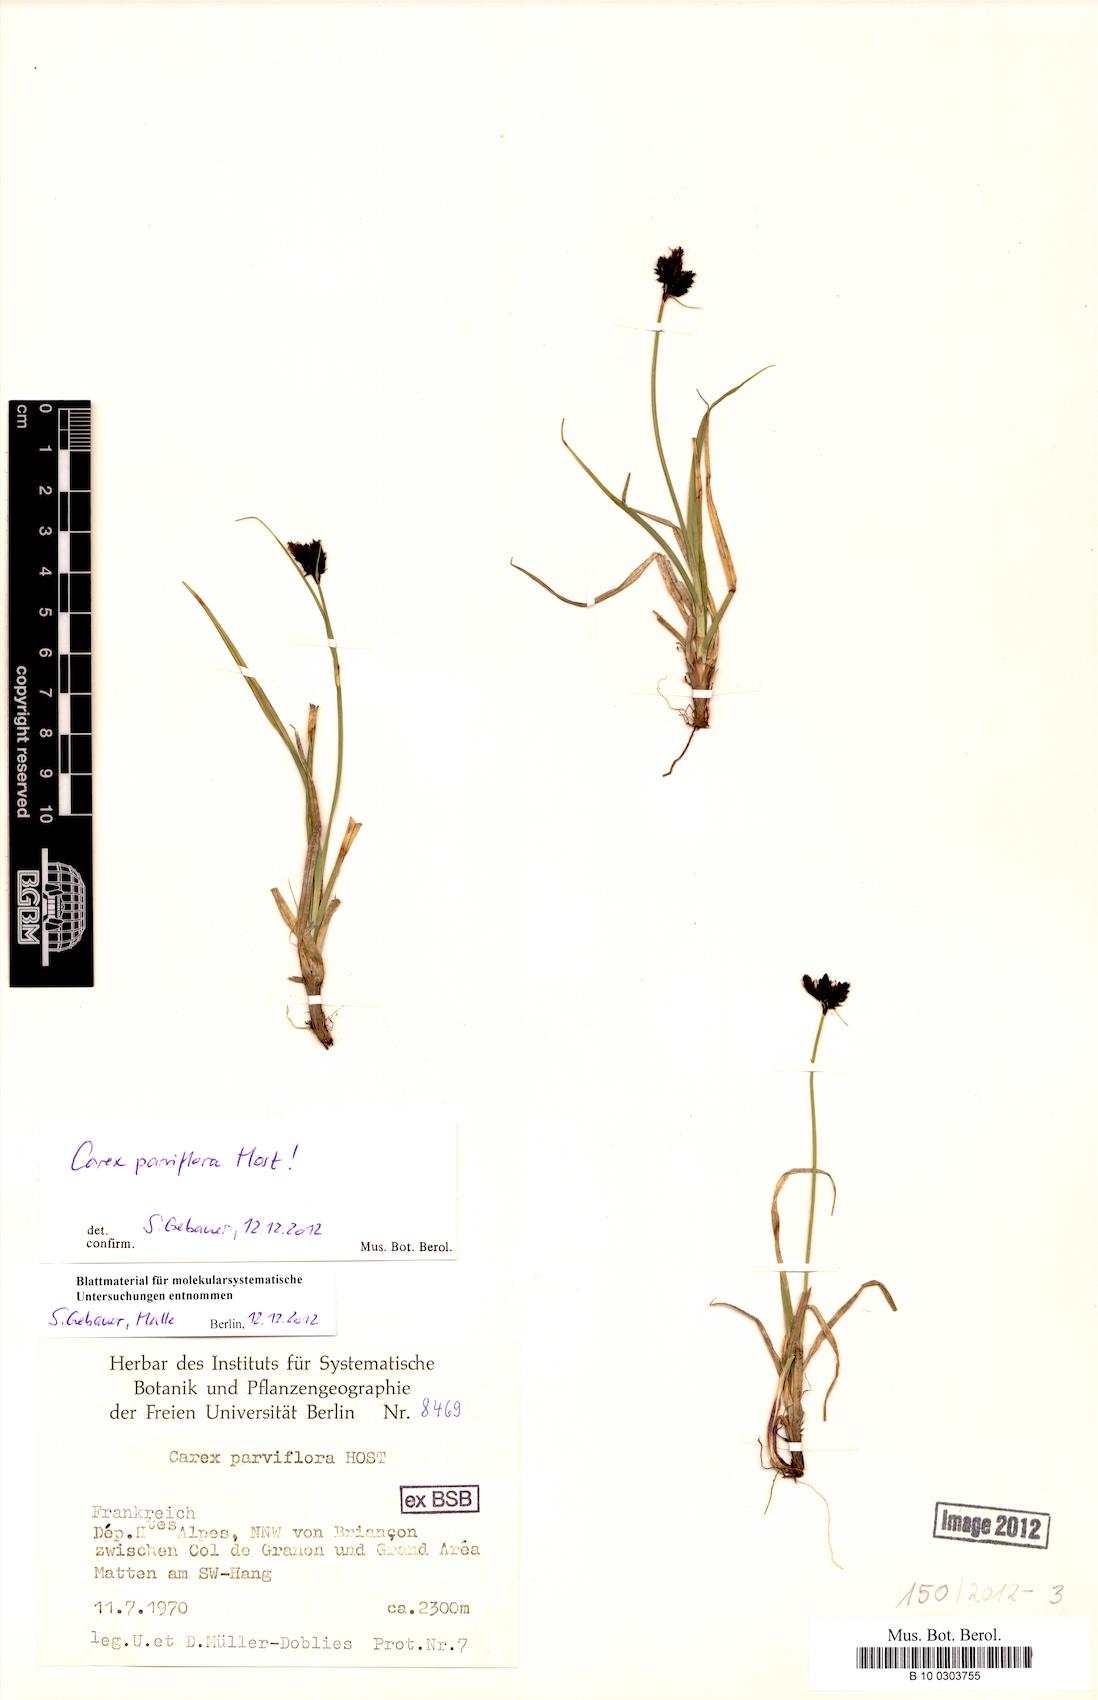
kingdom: Plantae
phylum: Tracheophyta
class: Liliopsida
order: Poales
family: Cyperaceae
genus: Carex
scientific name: Carex parviflora
